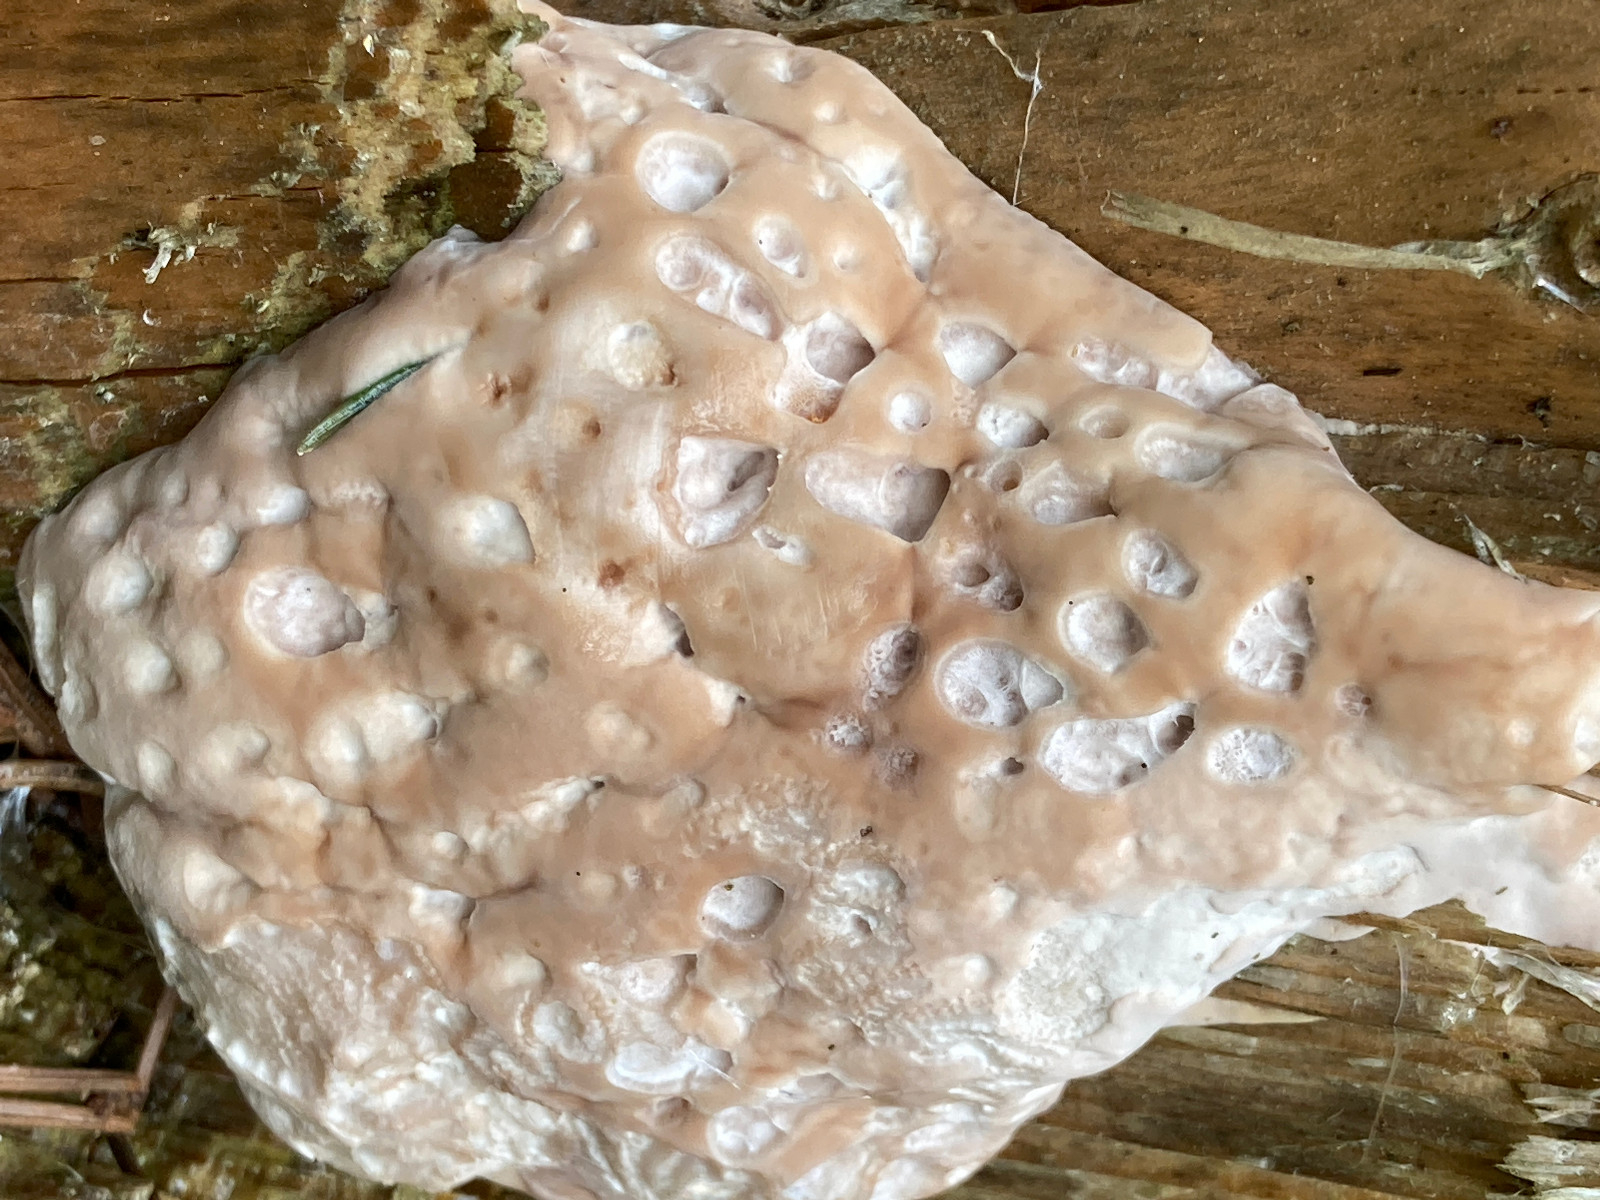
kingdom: Fungi
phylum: Basidiomycota
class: Agaricomycetes
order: Polyporales
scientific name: Polyporales
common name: poresvampordenen
